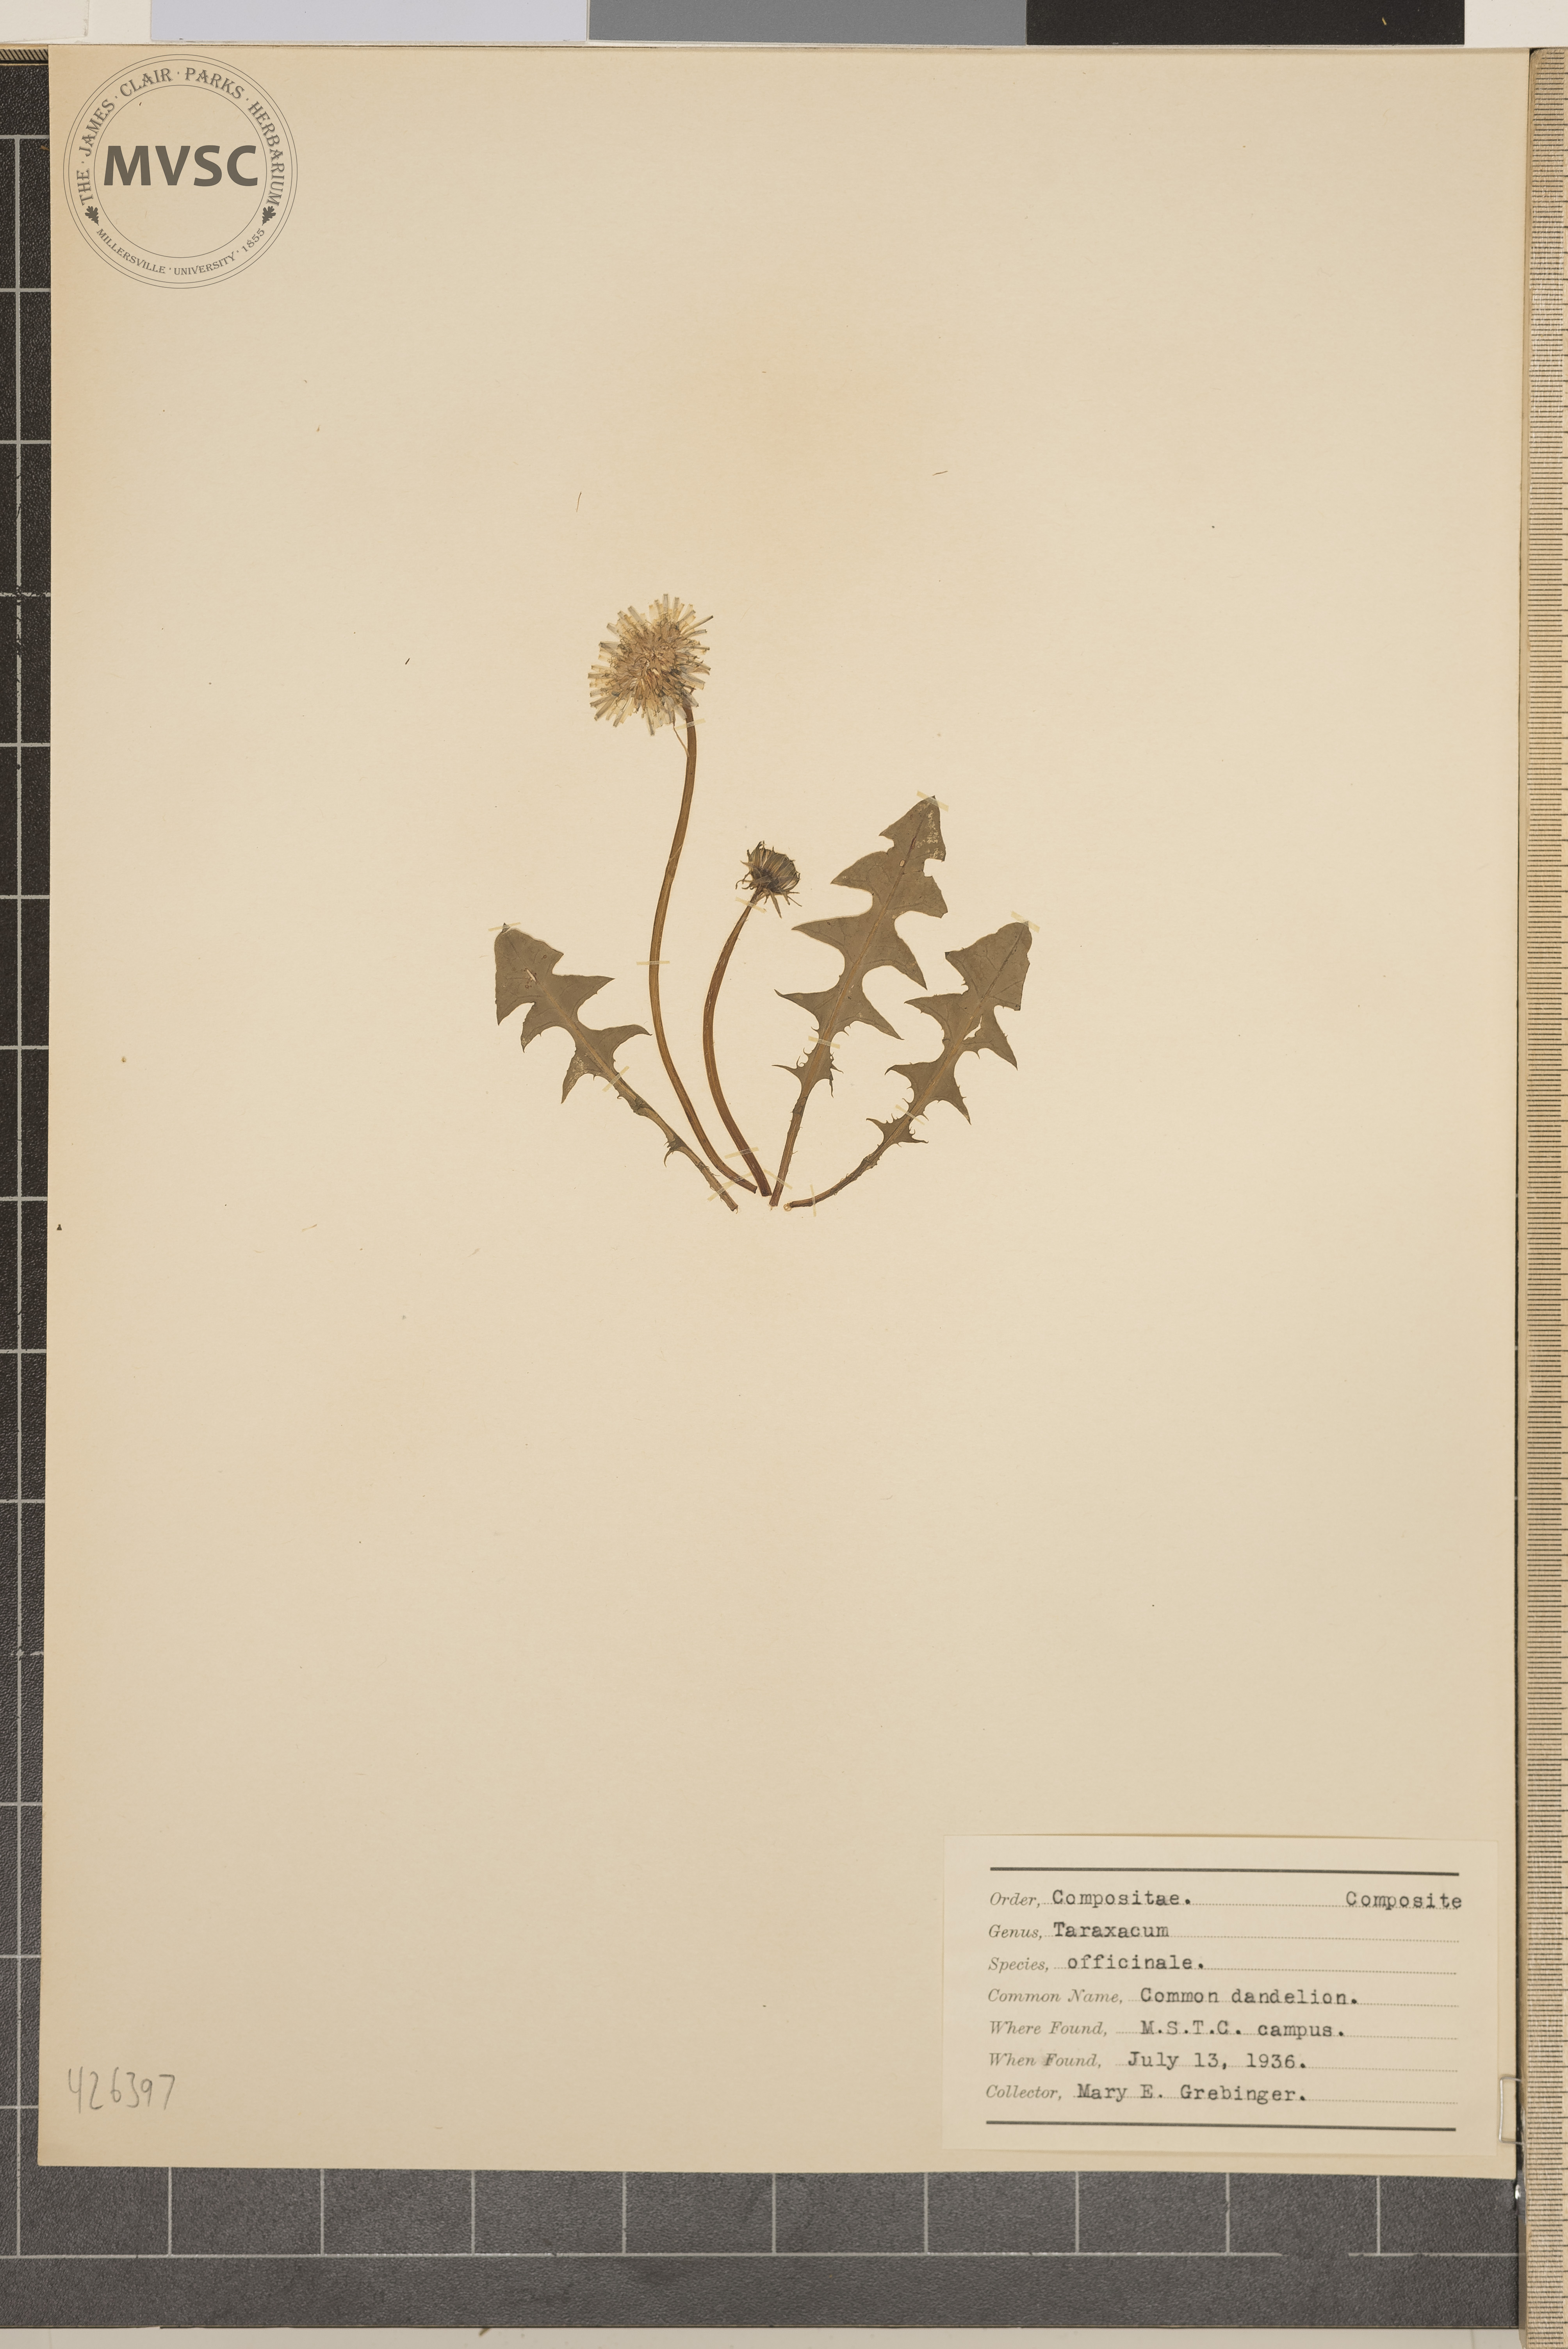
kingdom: Plantae
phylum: Tracheophyta
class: Magnoliopsida
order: Asterales
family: Asteraceae
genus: Taraxacum
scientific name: Taraxacum officinale
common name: Common dandelion
